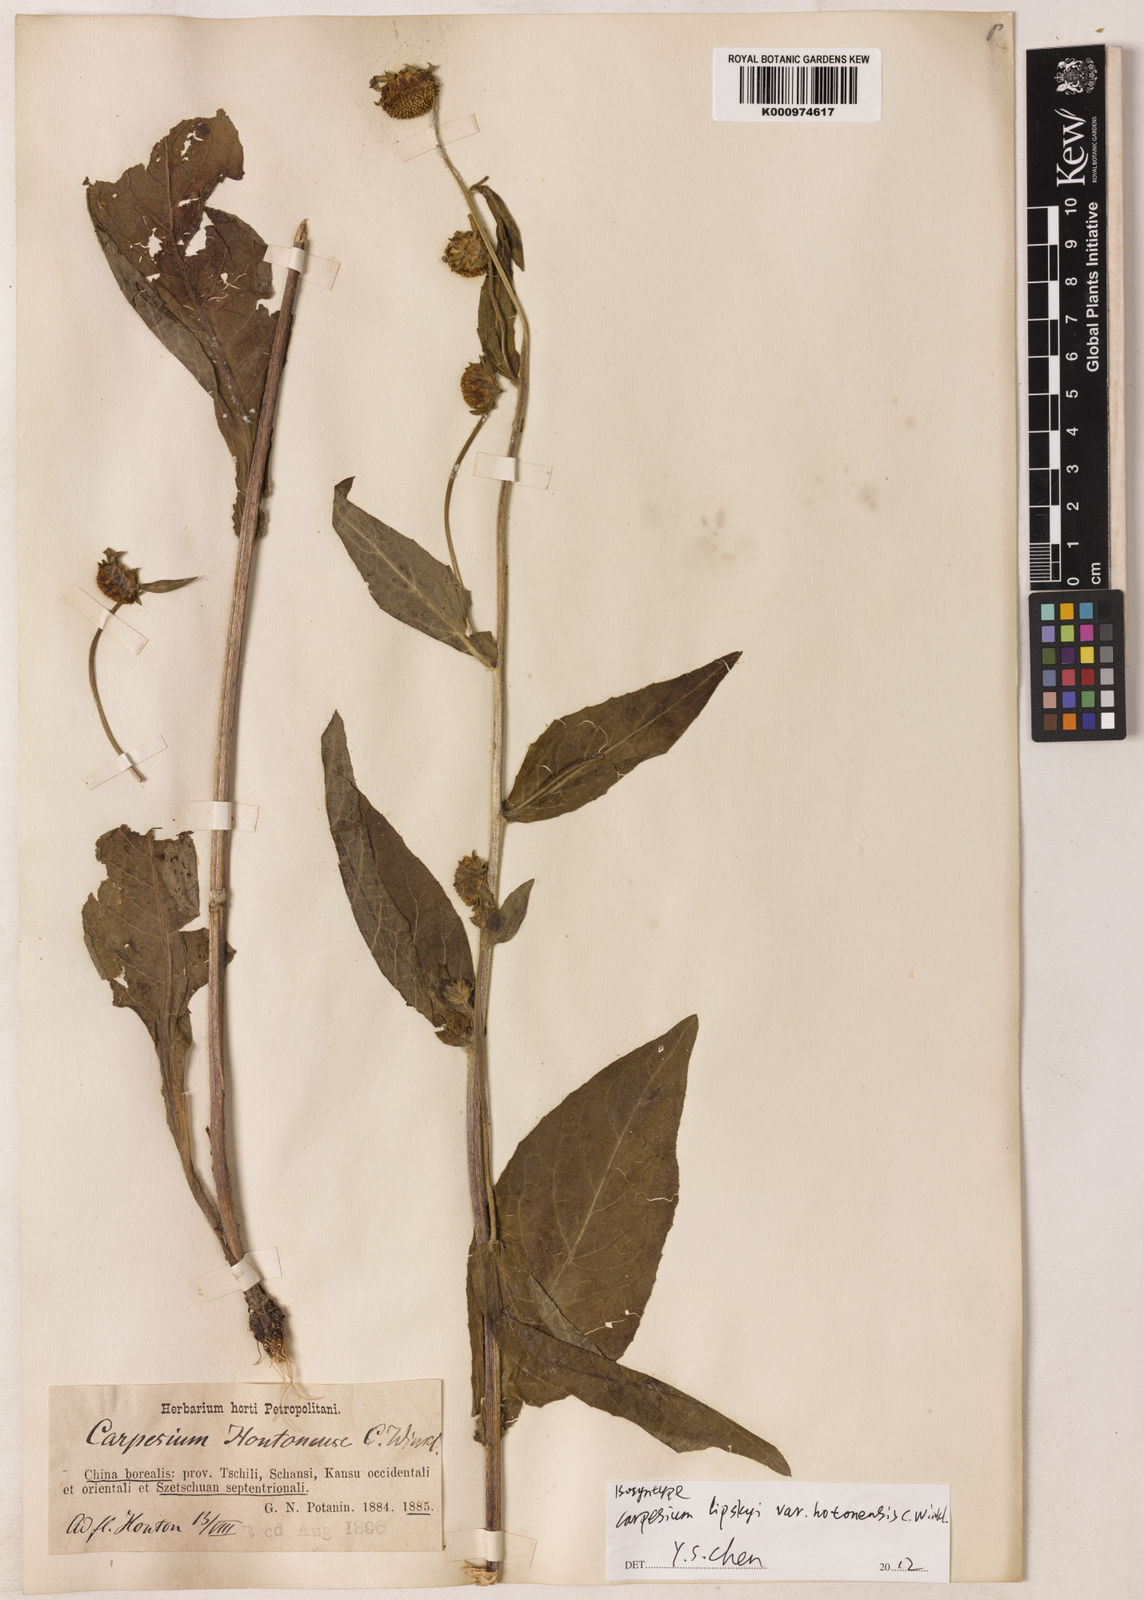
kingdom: Plantae
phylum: Tracheophyta
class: Magnoliopsida
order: Asterales
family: Asteraceae
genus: Carpesium
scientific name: Carpesium lipskyi
